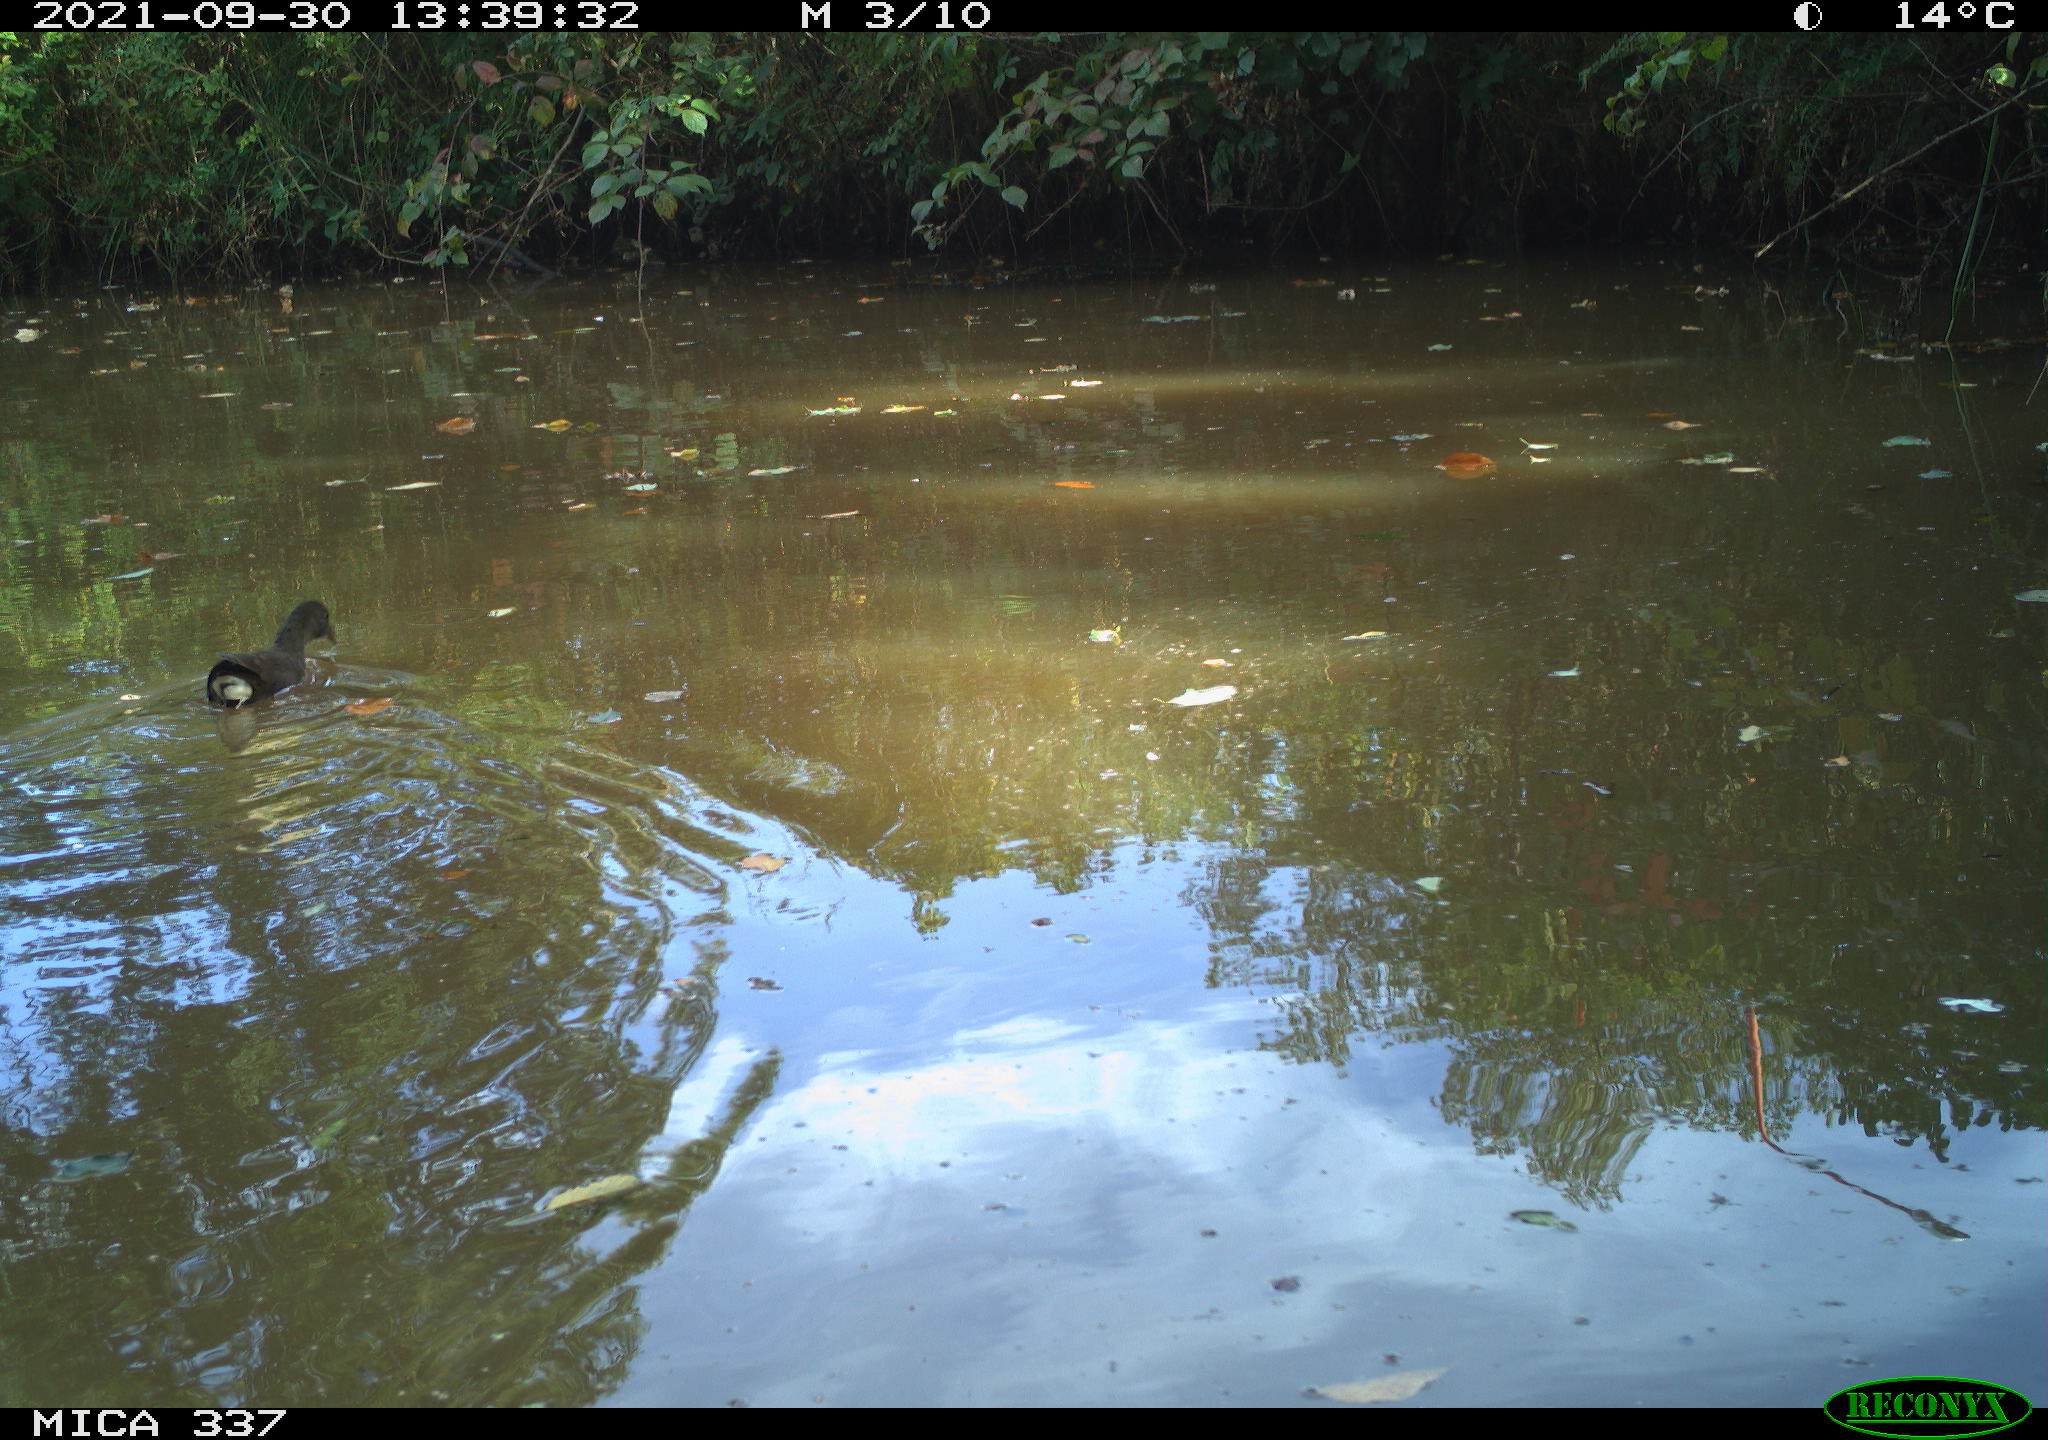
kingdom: Animalia
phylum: Chordata
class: Aves
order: Gruiformes
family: Rallidae
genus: Gallinula
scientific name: Gallinula chloropus
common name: Common moorhen
